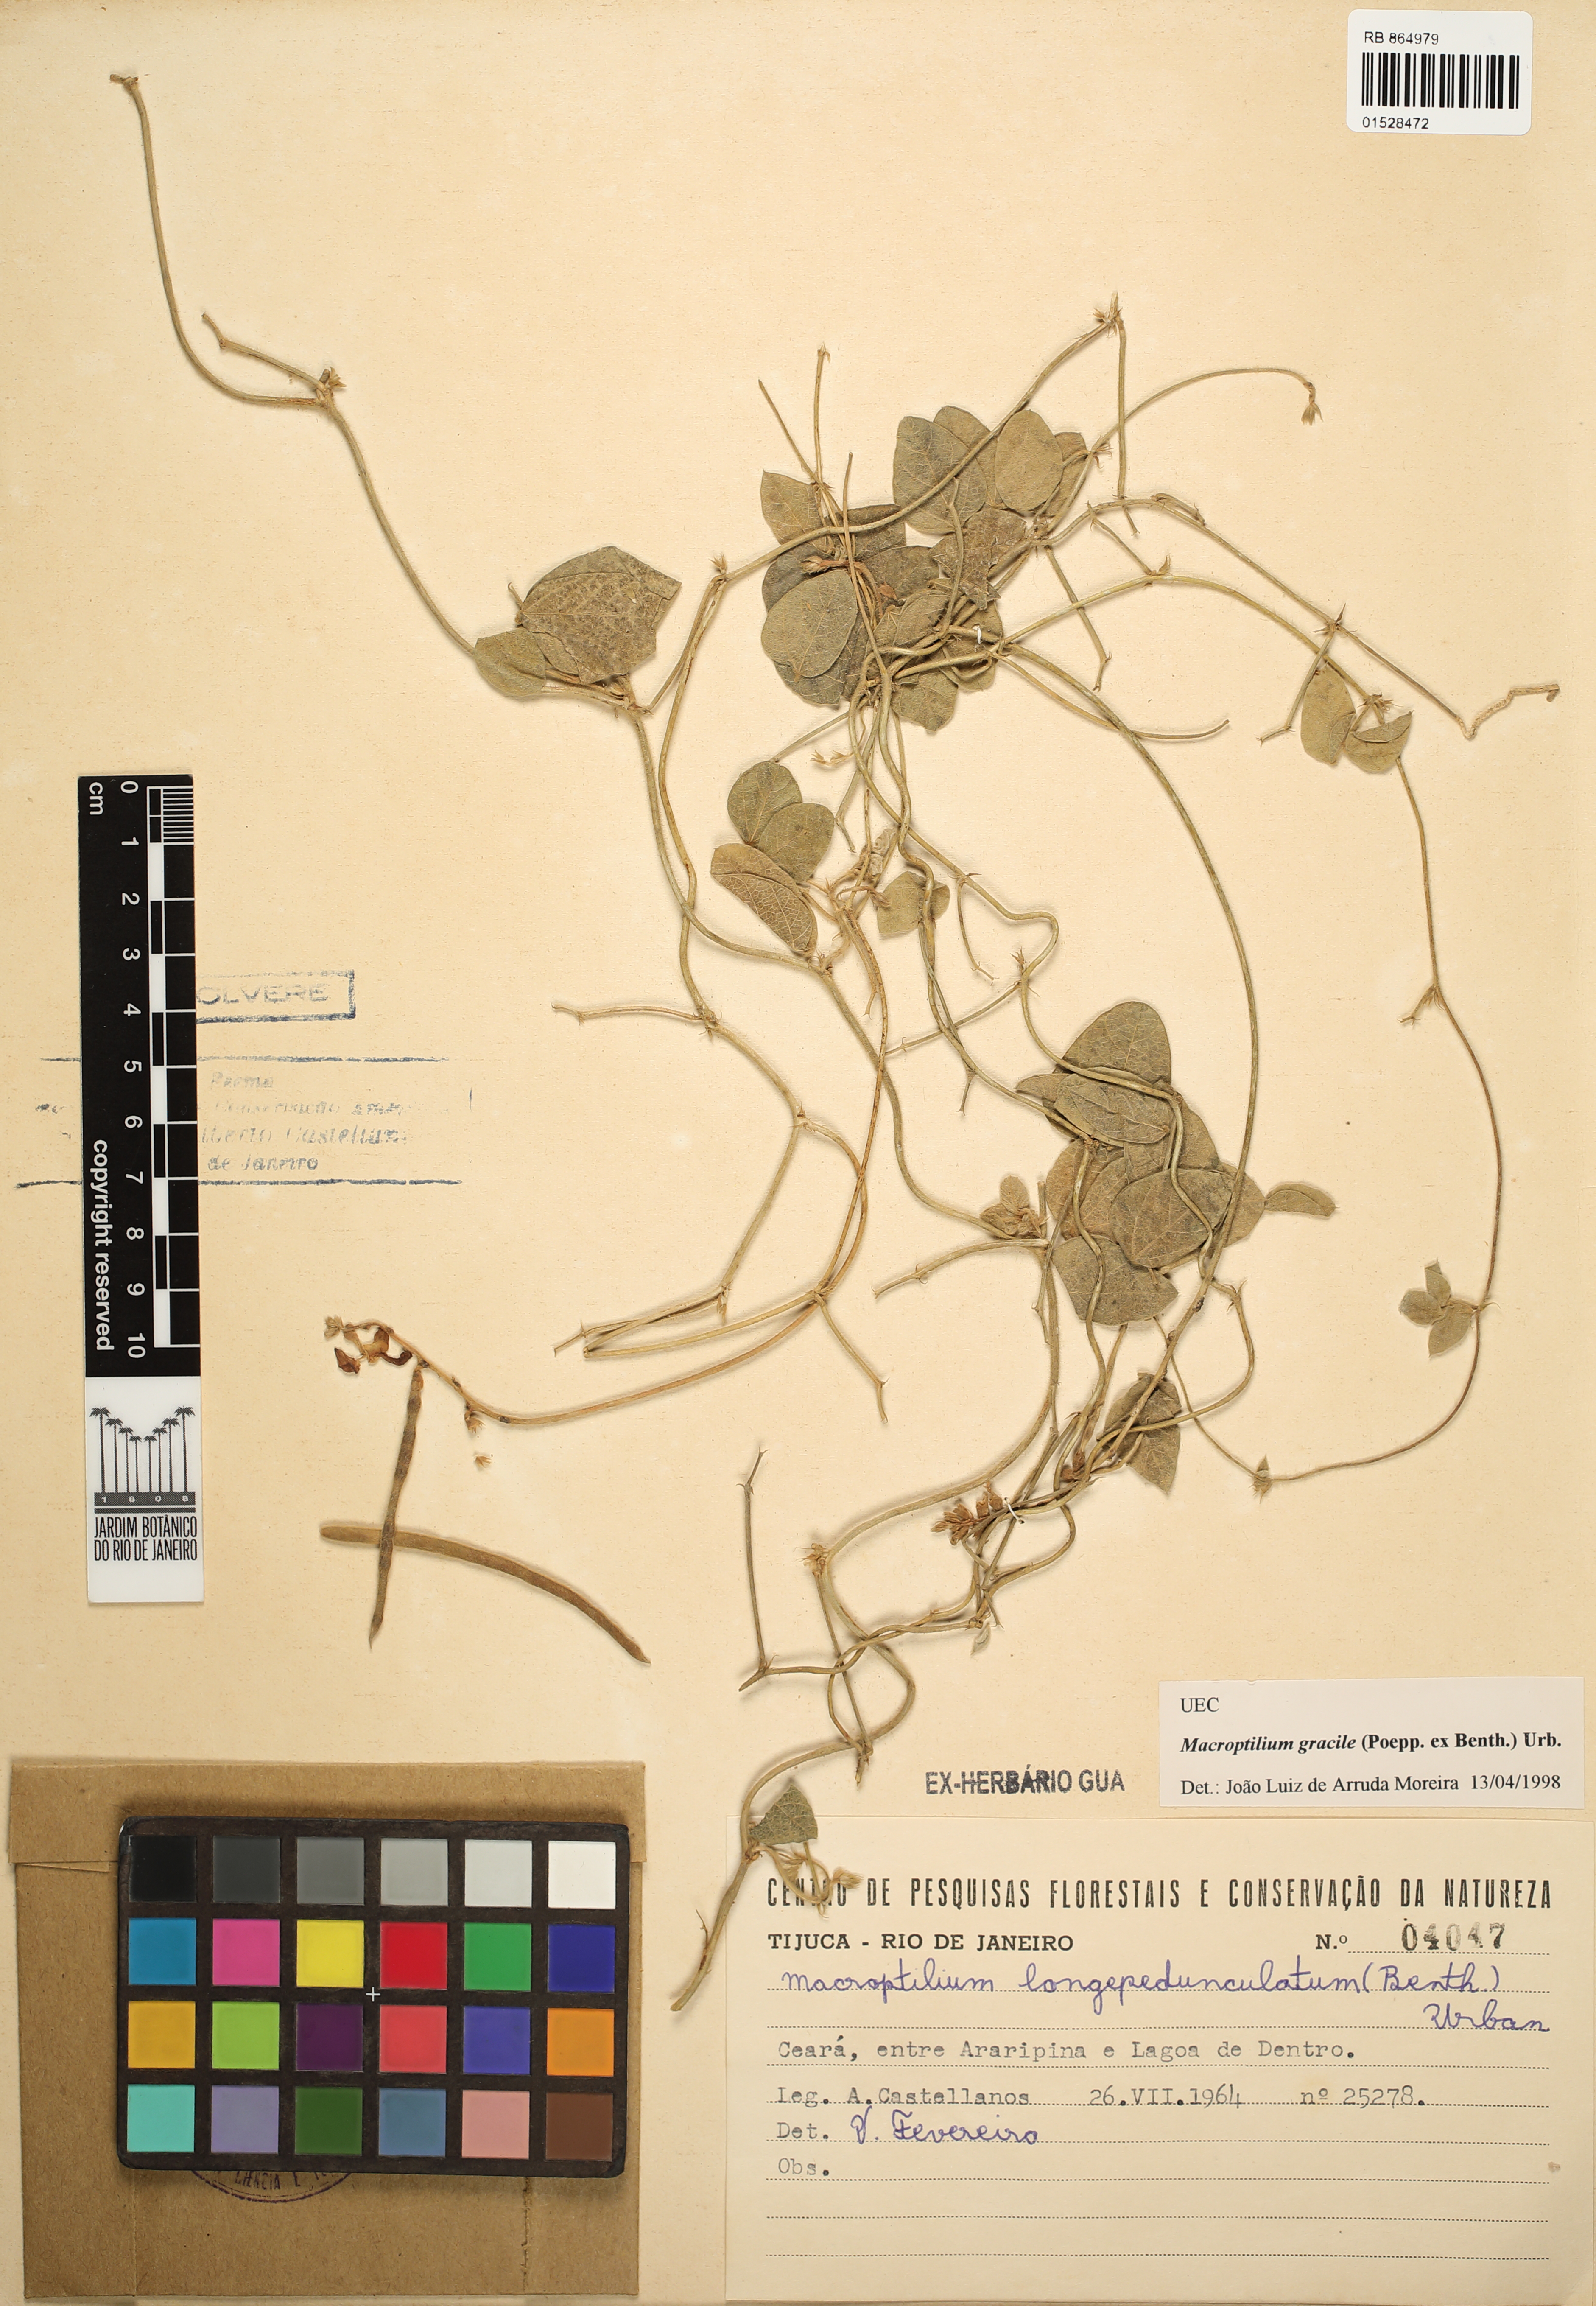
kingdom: Plantae
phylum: Tracheophyta
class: Magnoliopsida
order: Fabales
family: Fabaceae
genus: Macroptilium
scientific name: Macroptilium gracile
